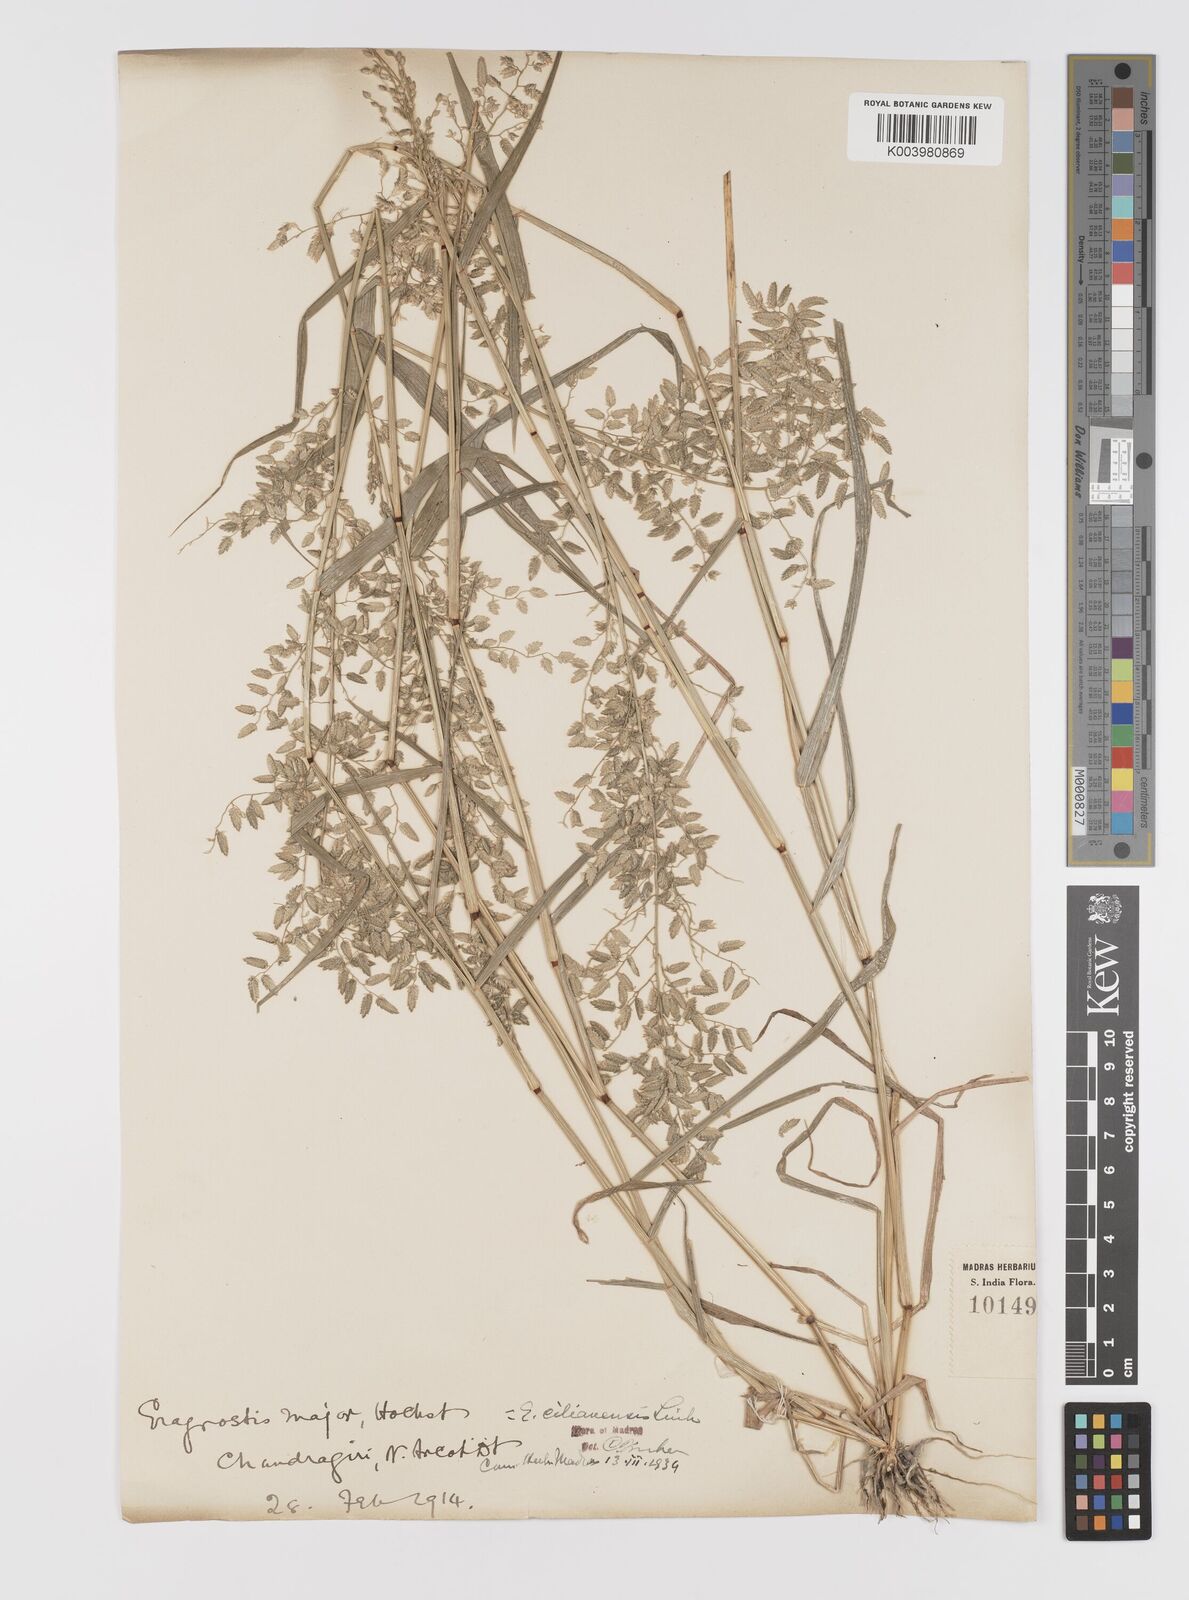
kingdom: Plantae
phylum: Tracheophyta
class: Liliopsida
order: Poales
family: Poaceae
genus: Eragrostis
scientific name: Eragrostis cilianensis
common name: Stinkgrass
